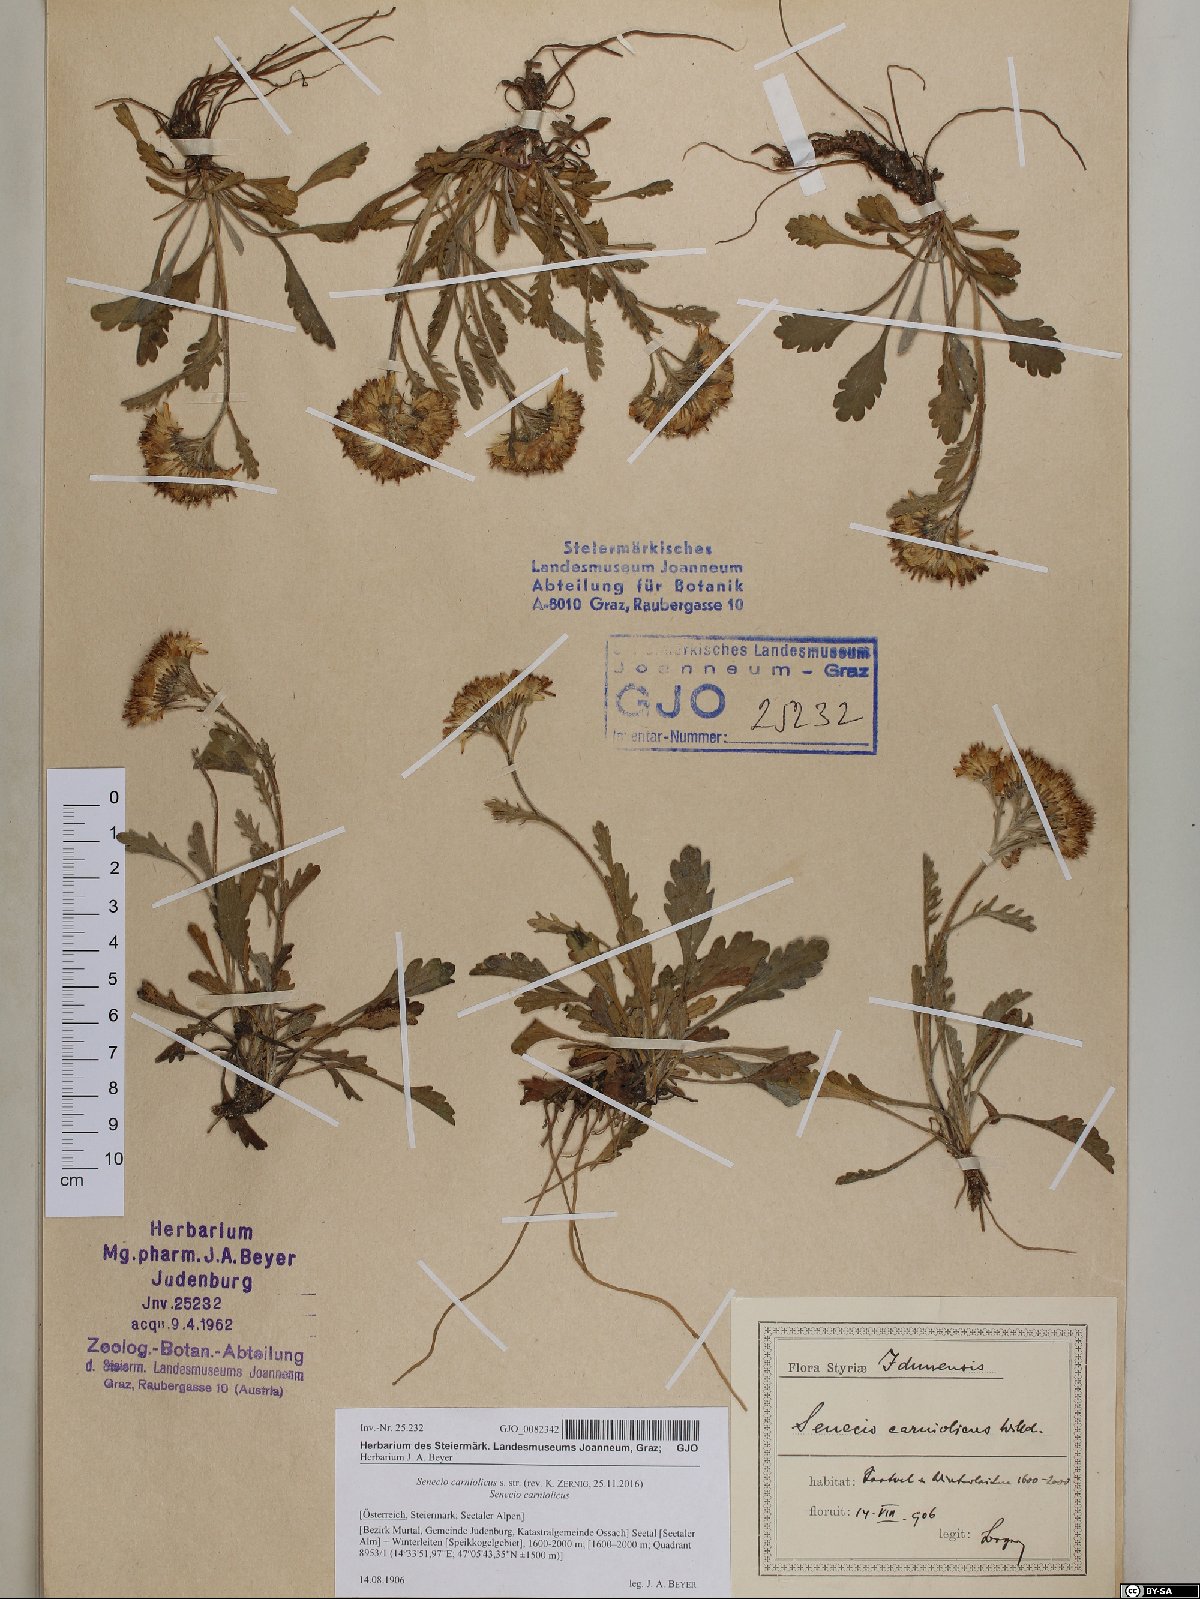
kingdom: Plantae
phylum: Tracheophyta
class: Magnoliopsida
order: Asterales
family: Asteraceae
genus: Jacobaea
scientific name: Jacobaea carniolica
